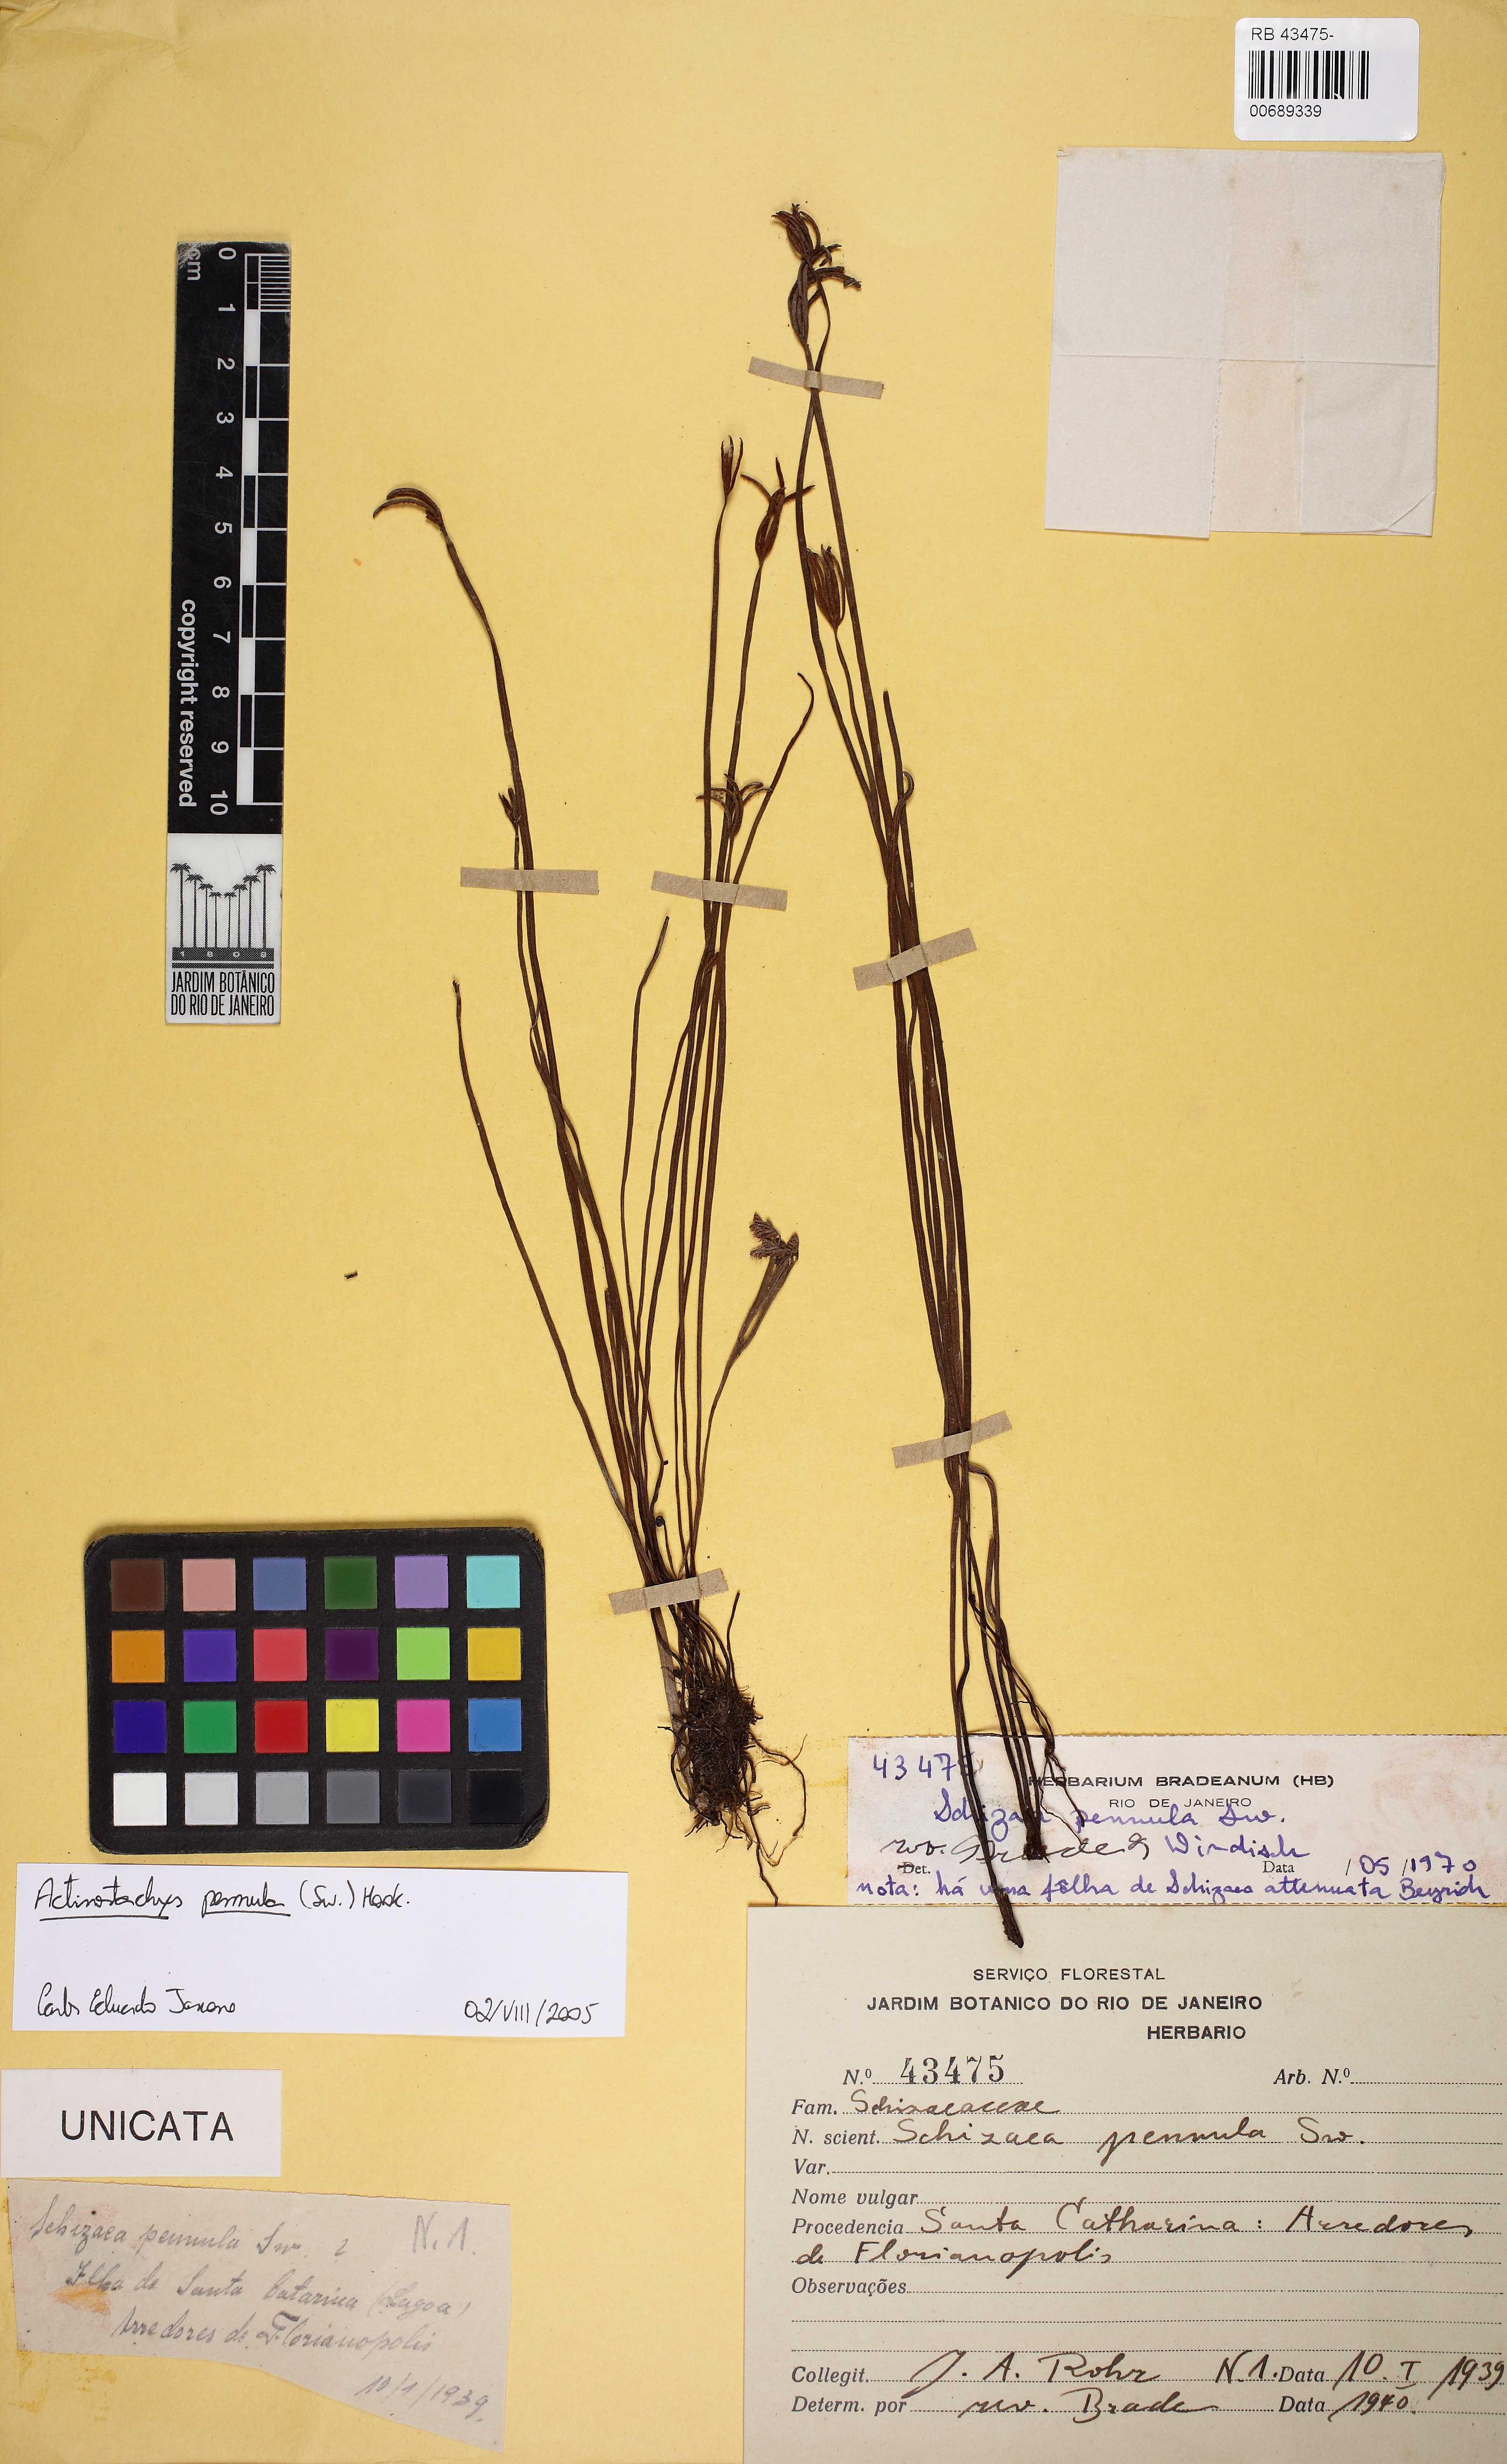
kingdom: Plantae
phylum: Tracheophyta
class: Polypodiopsida
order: Schizaeales
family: Schizaeaceae
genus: Actinostachys
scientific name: Actinostachys pennula
